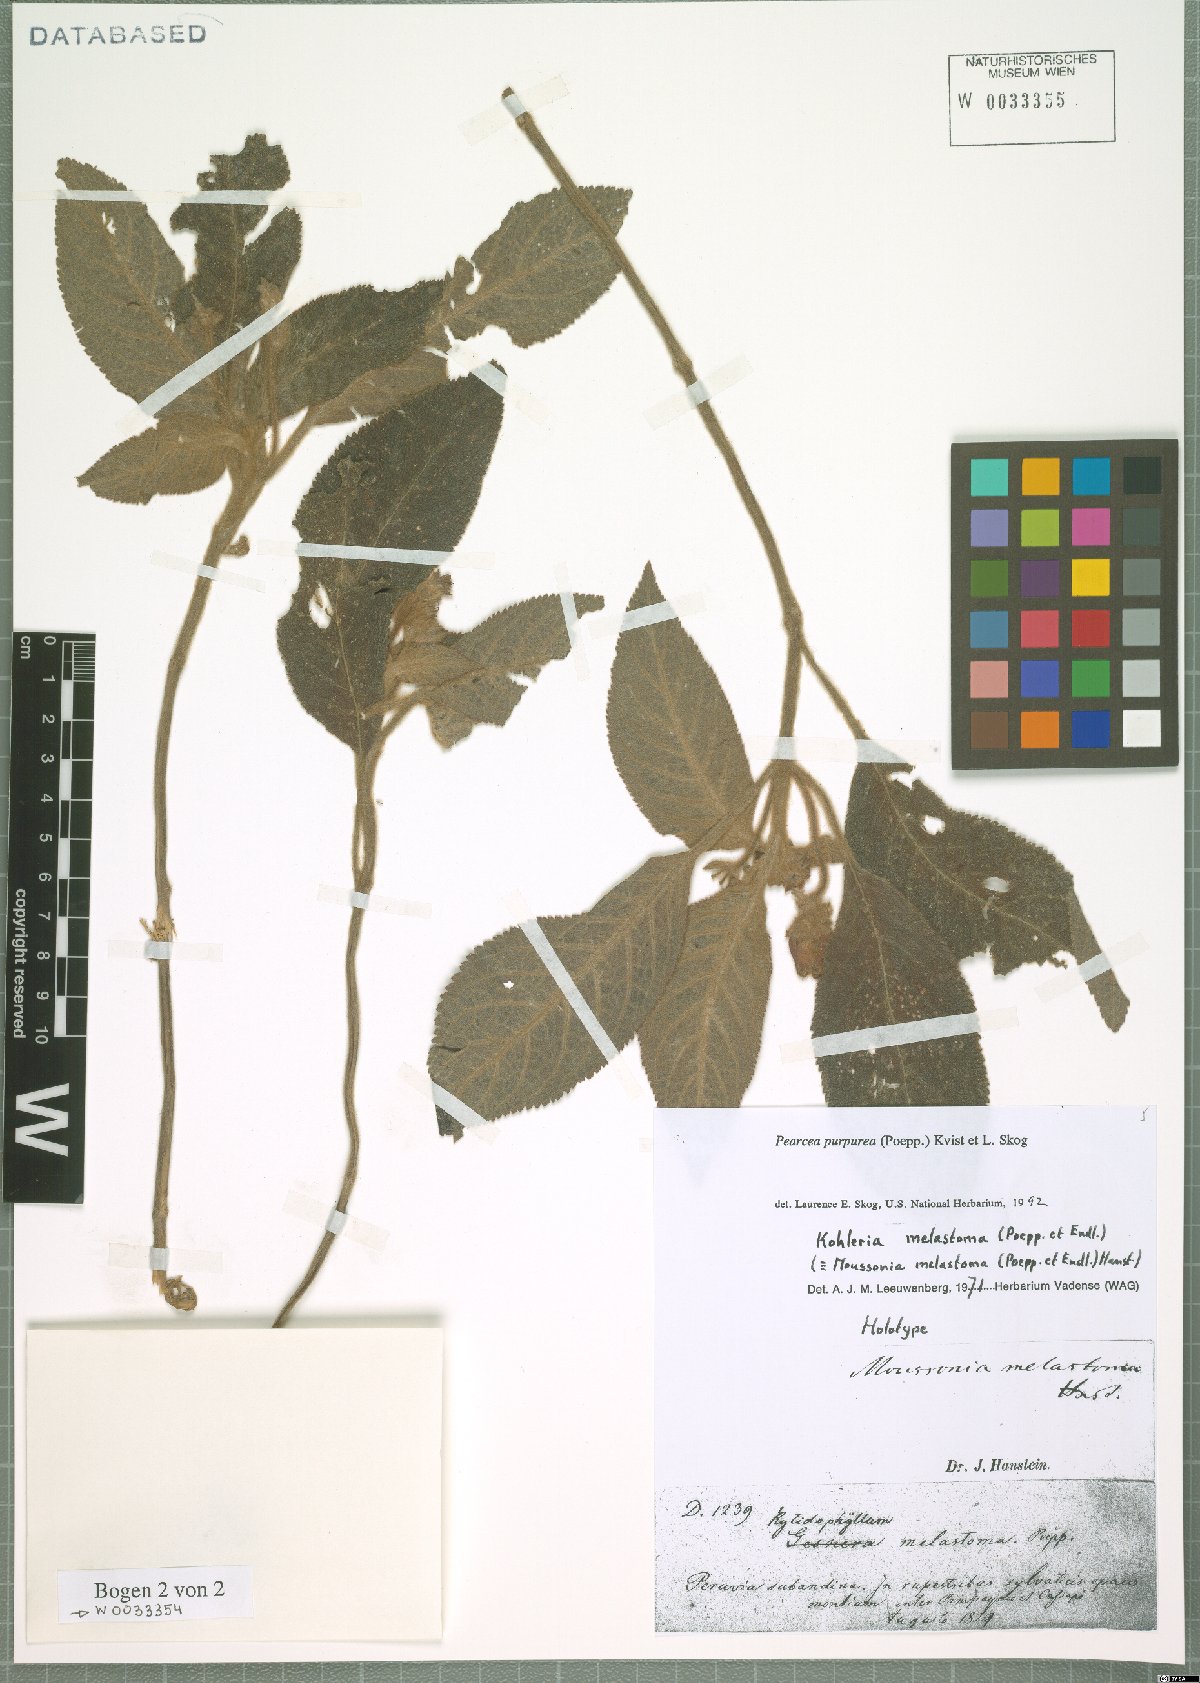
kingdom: Plantae
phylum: Tracheophyta
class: Magnoliopsida
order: Lamiales
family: Gesneriaceae
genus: Pearcea
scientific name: Pearcea purpurea
